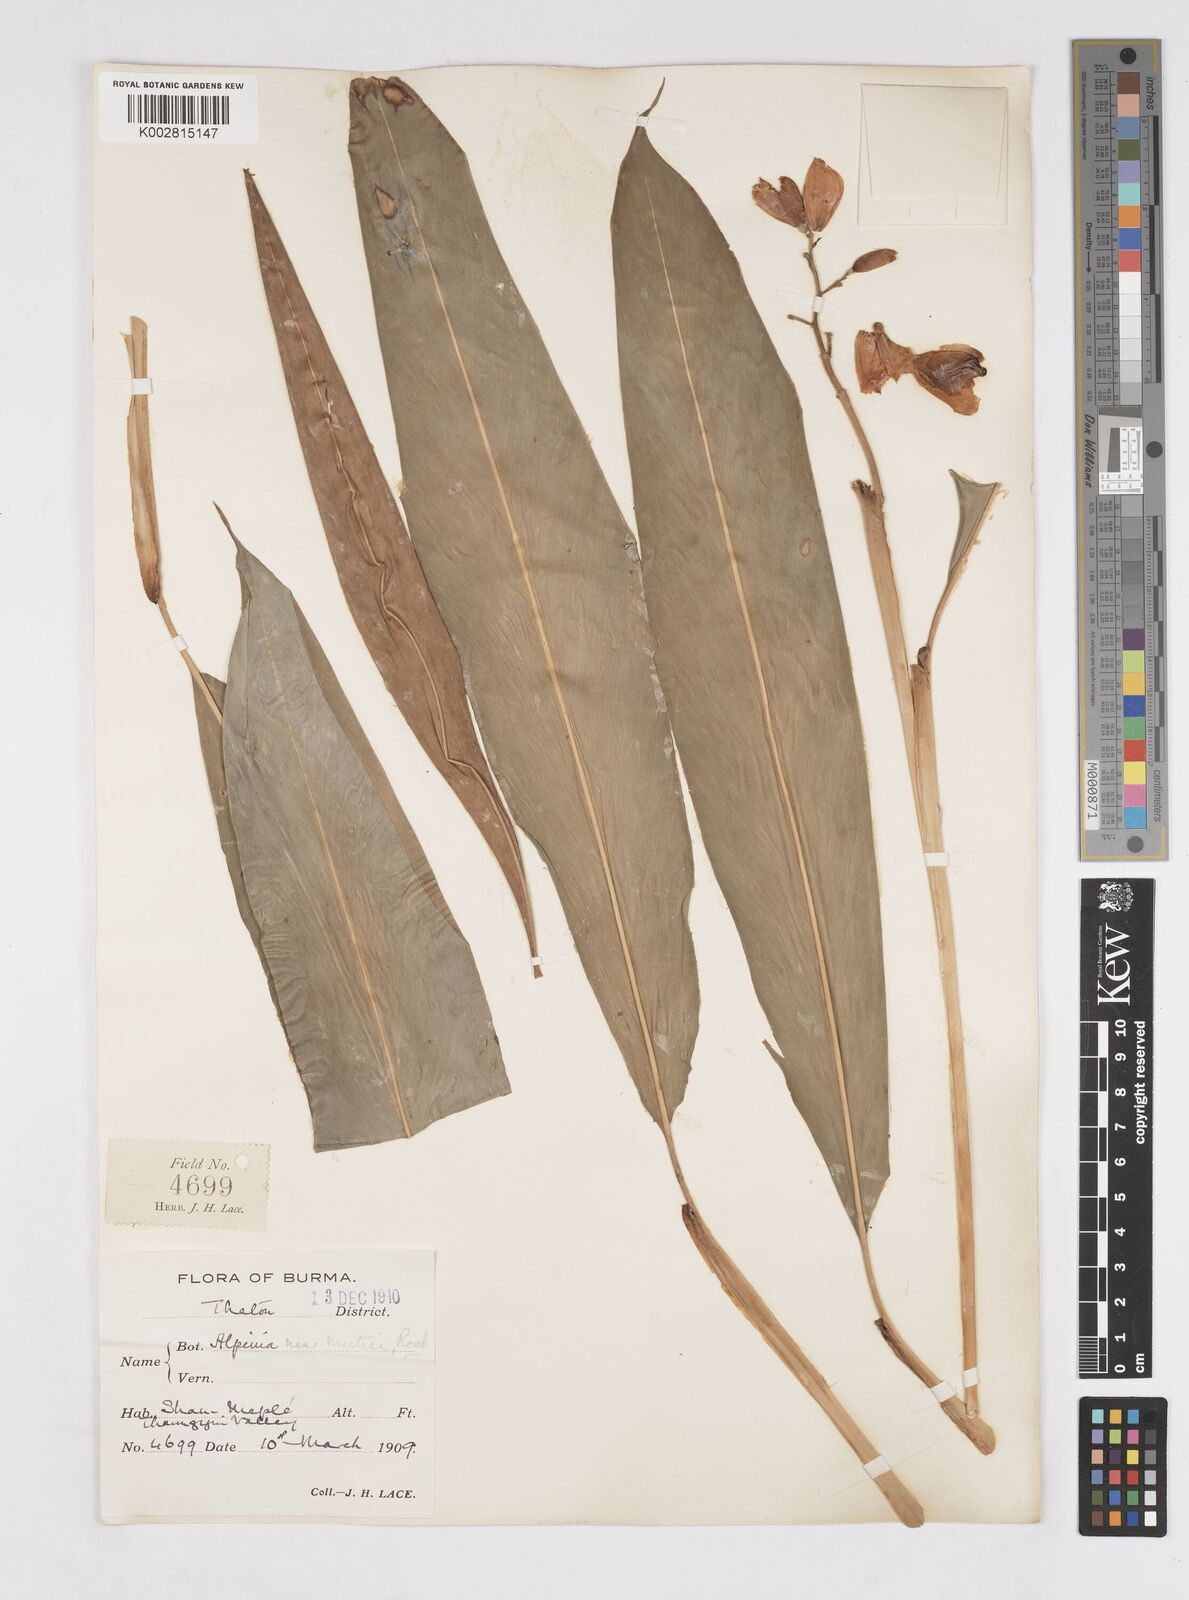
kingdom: Plantae
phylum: Tracheophyta
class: Liliopsida
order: Zingiberales
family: Zingiberaceae
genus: Alpinia
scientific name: Alpinia mutica
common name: Small shell ginger
